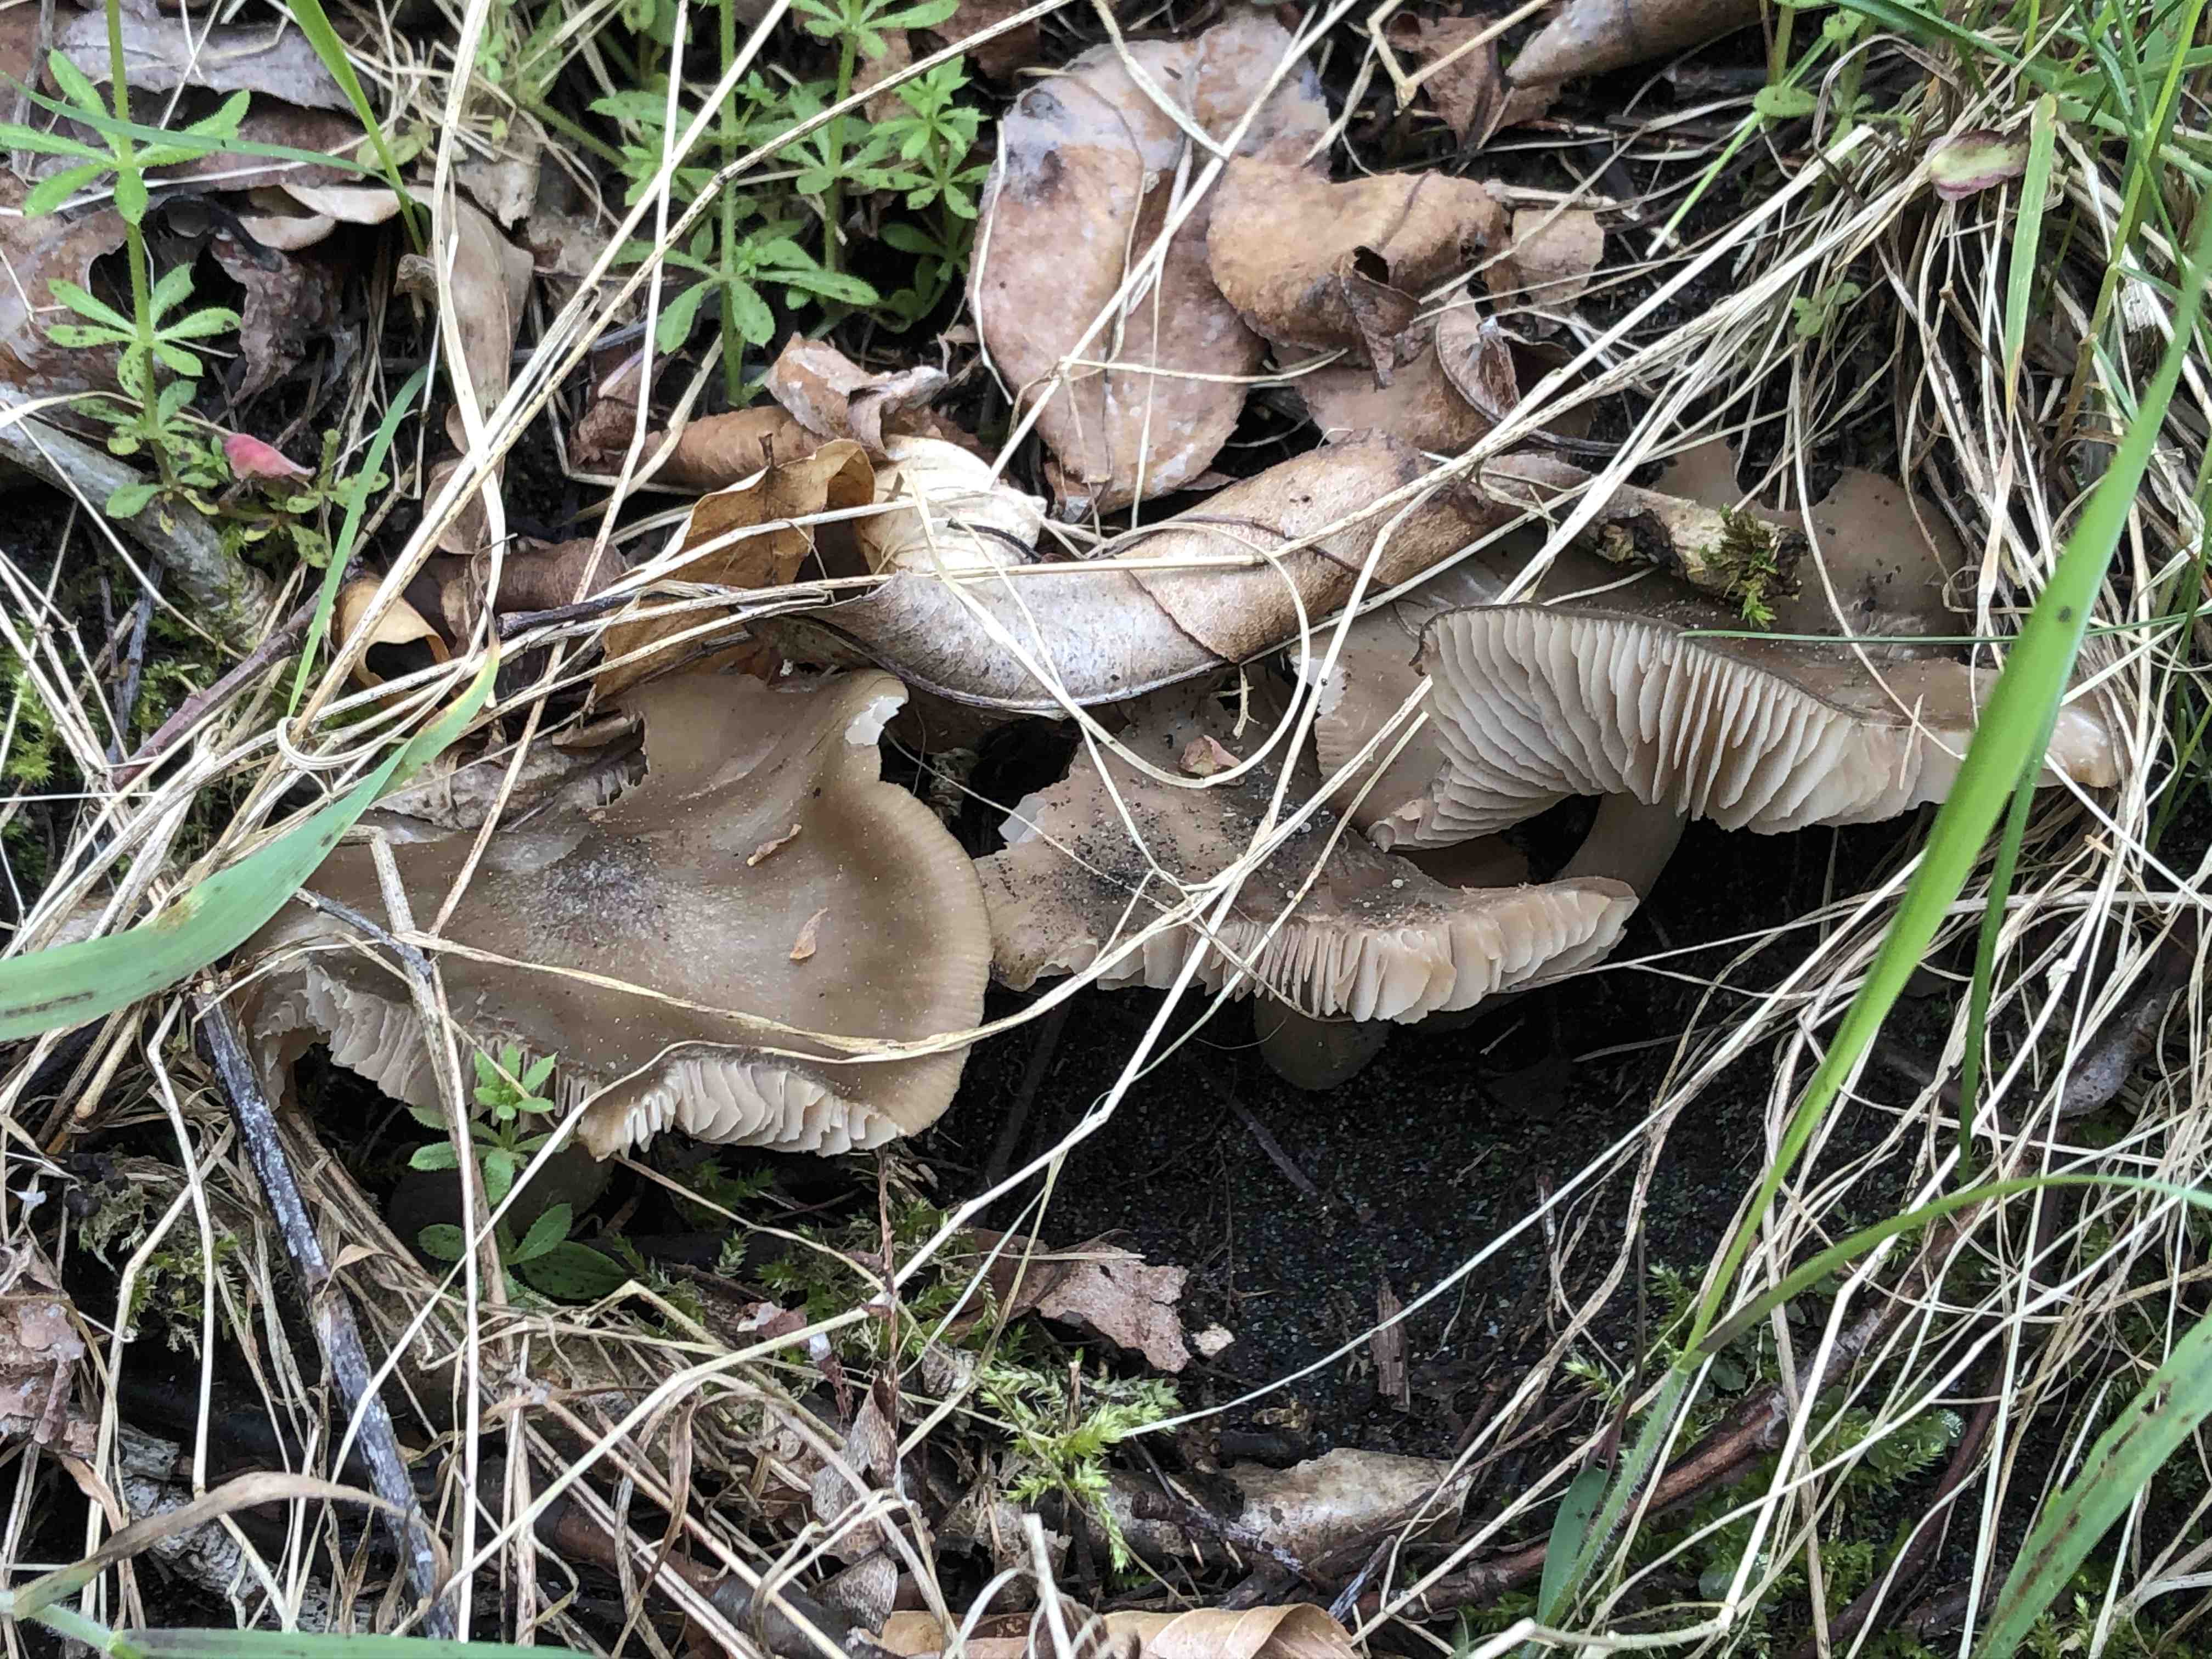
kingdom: Fungi
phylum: Basidiomycota
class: Agaricomycetes
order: Agaricales
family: Entolomataceae
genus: Entoloma
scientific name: Entoloma clypeatum
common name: flammet rødblad
